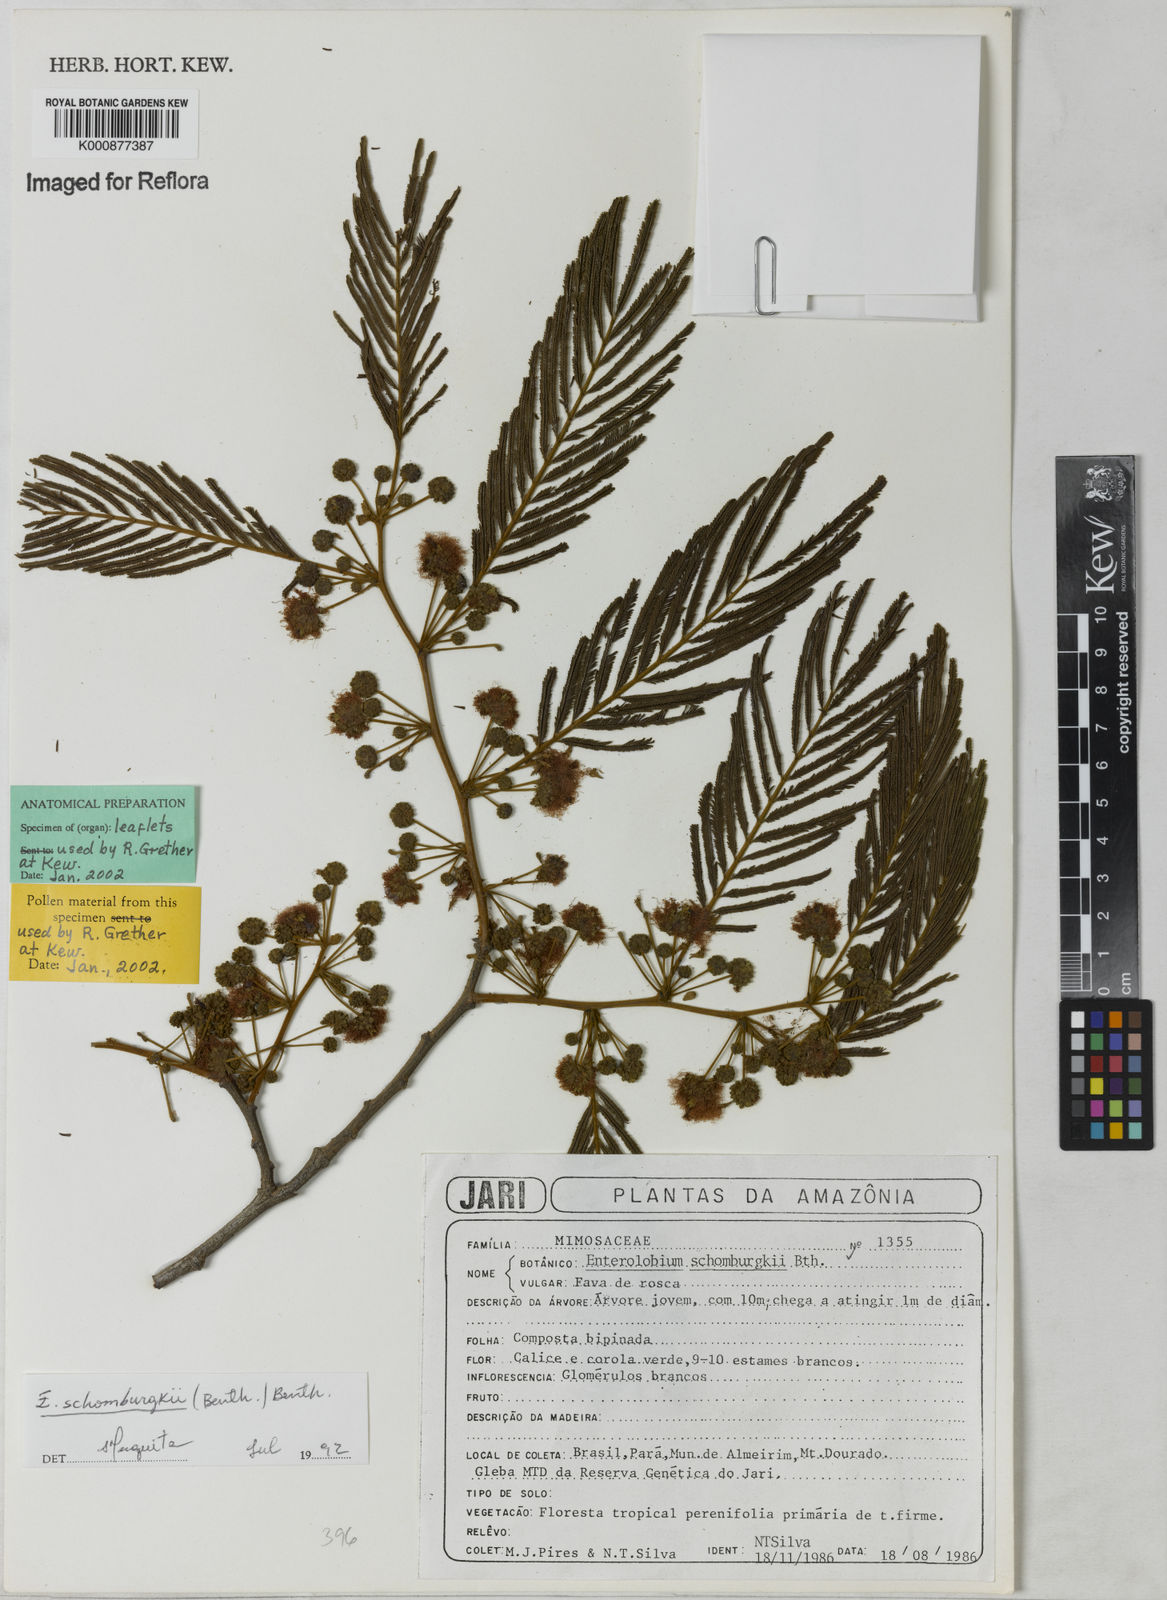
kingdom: Plantae
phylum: Tracheophyta
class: Magnoliopsida
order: Fabales
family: Fabaceae
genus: Enterolobium
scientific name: Enterolobium schomburgkii
